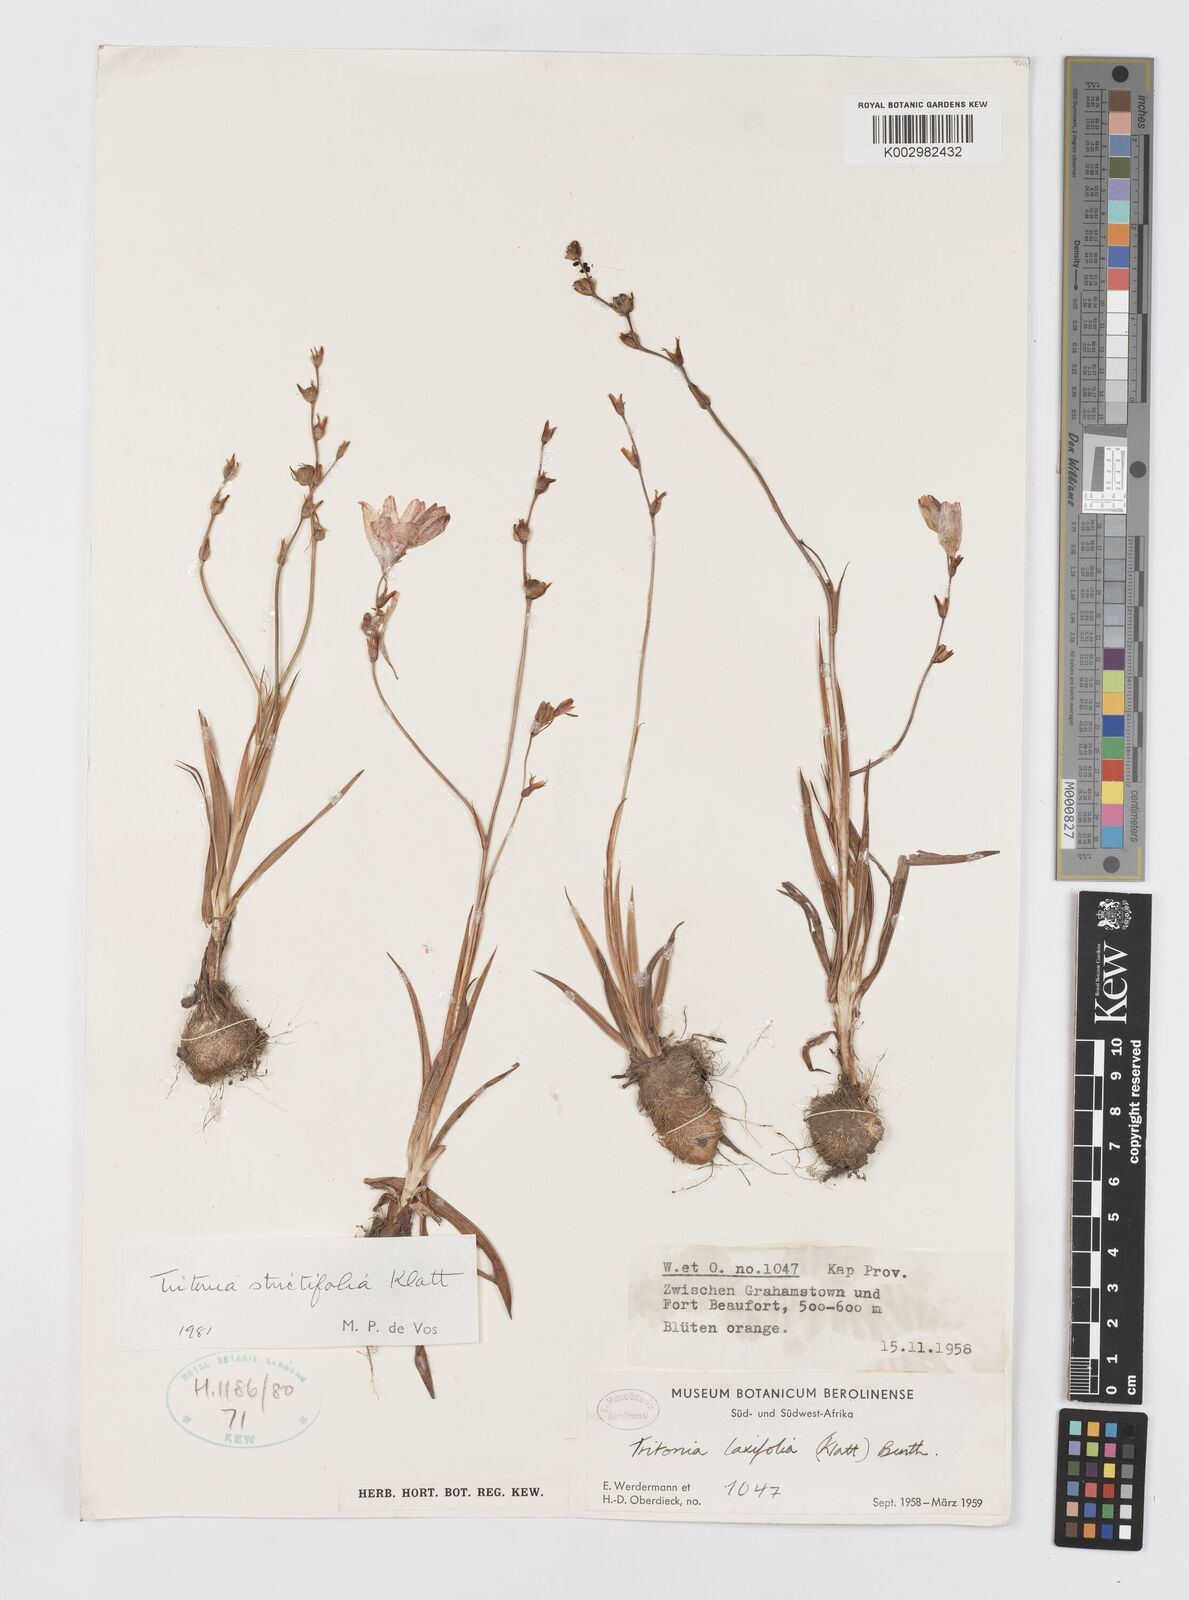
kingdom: Plantae
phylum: Tracheophyta
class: Liliopsida
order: Asparagales
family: Iridaceae
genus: Tritonia
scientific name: Tritonia laxifolia
